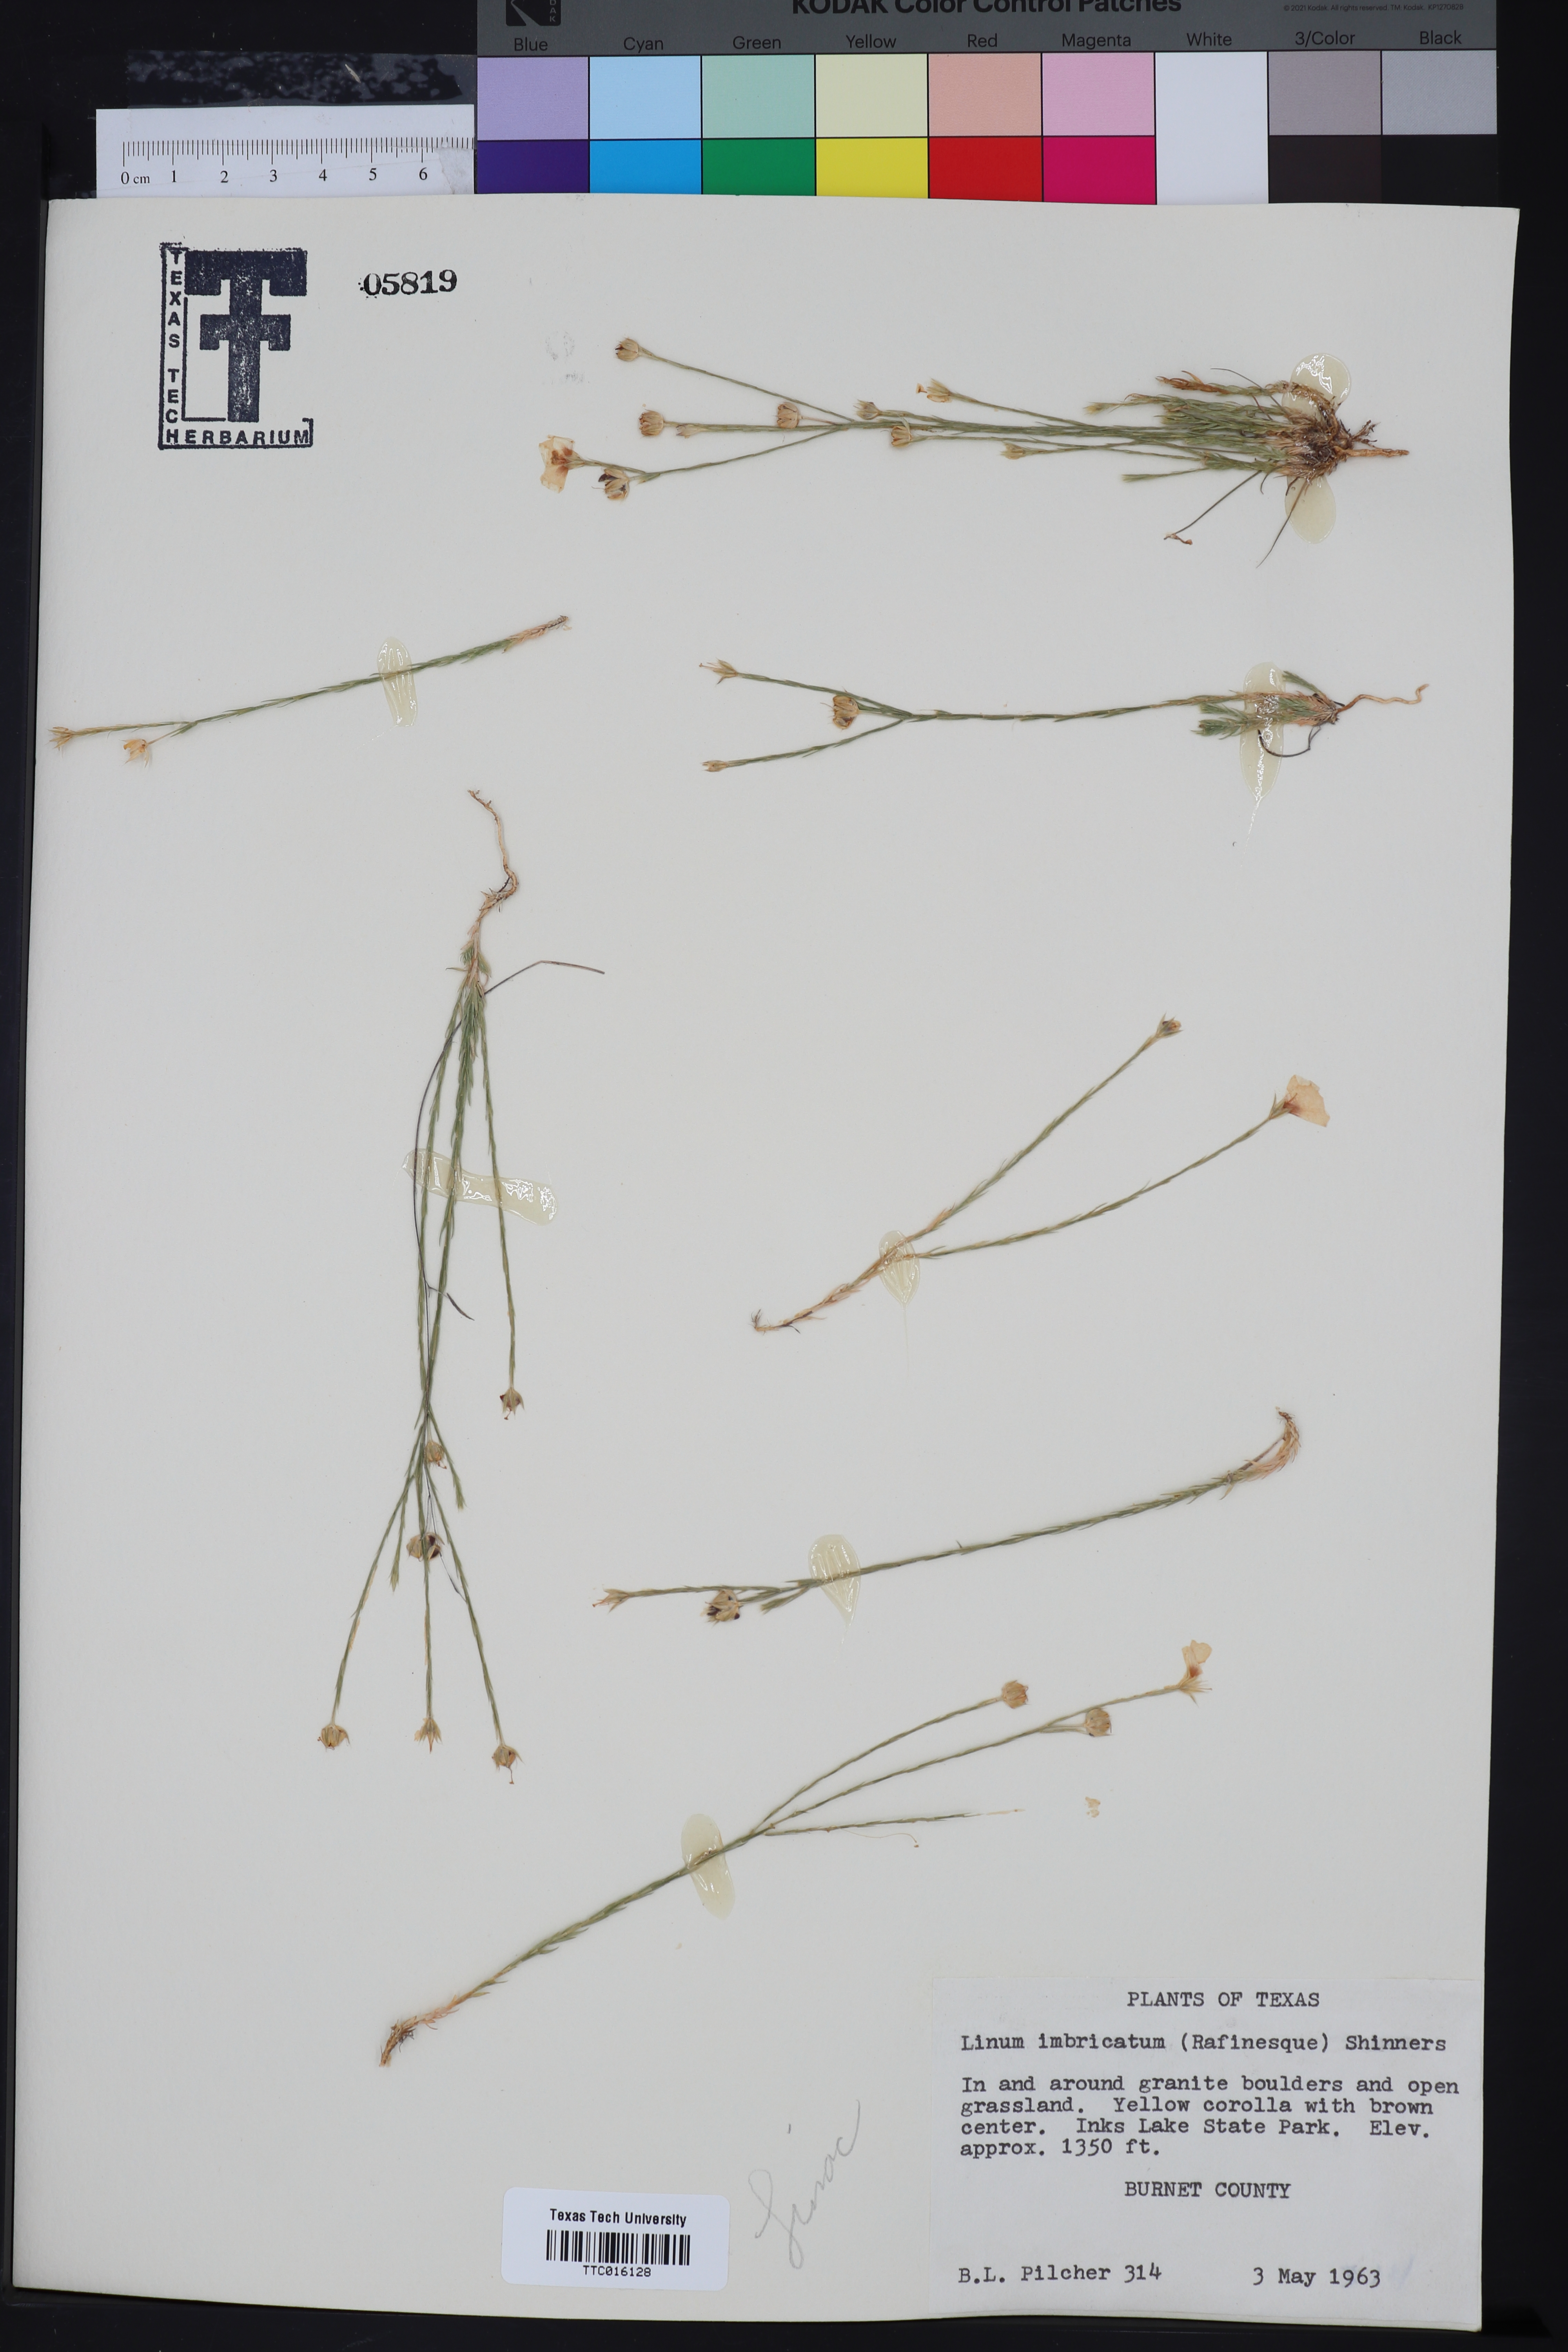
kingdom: Plantae
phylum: Tracheophyta
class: Magnoliopsida
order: Malpighiales
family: Linaceae
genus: Linum
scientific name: Linum imbricatum
